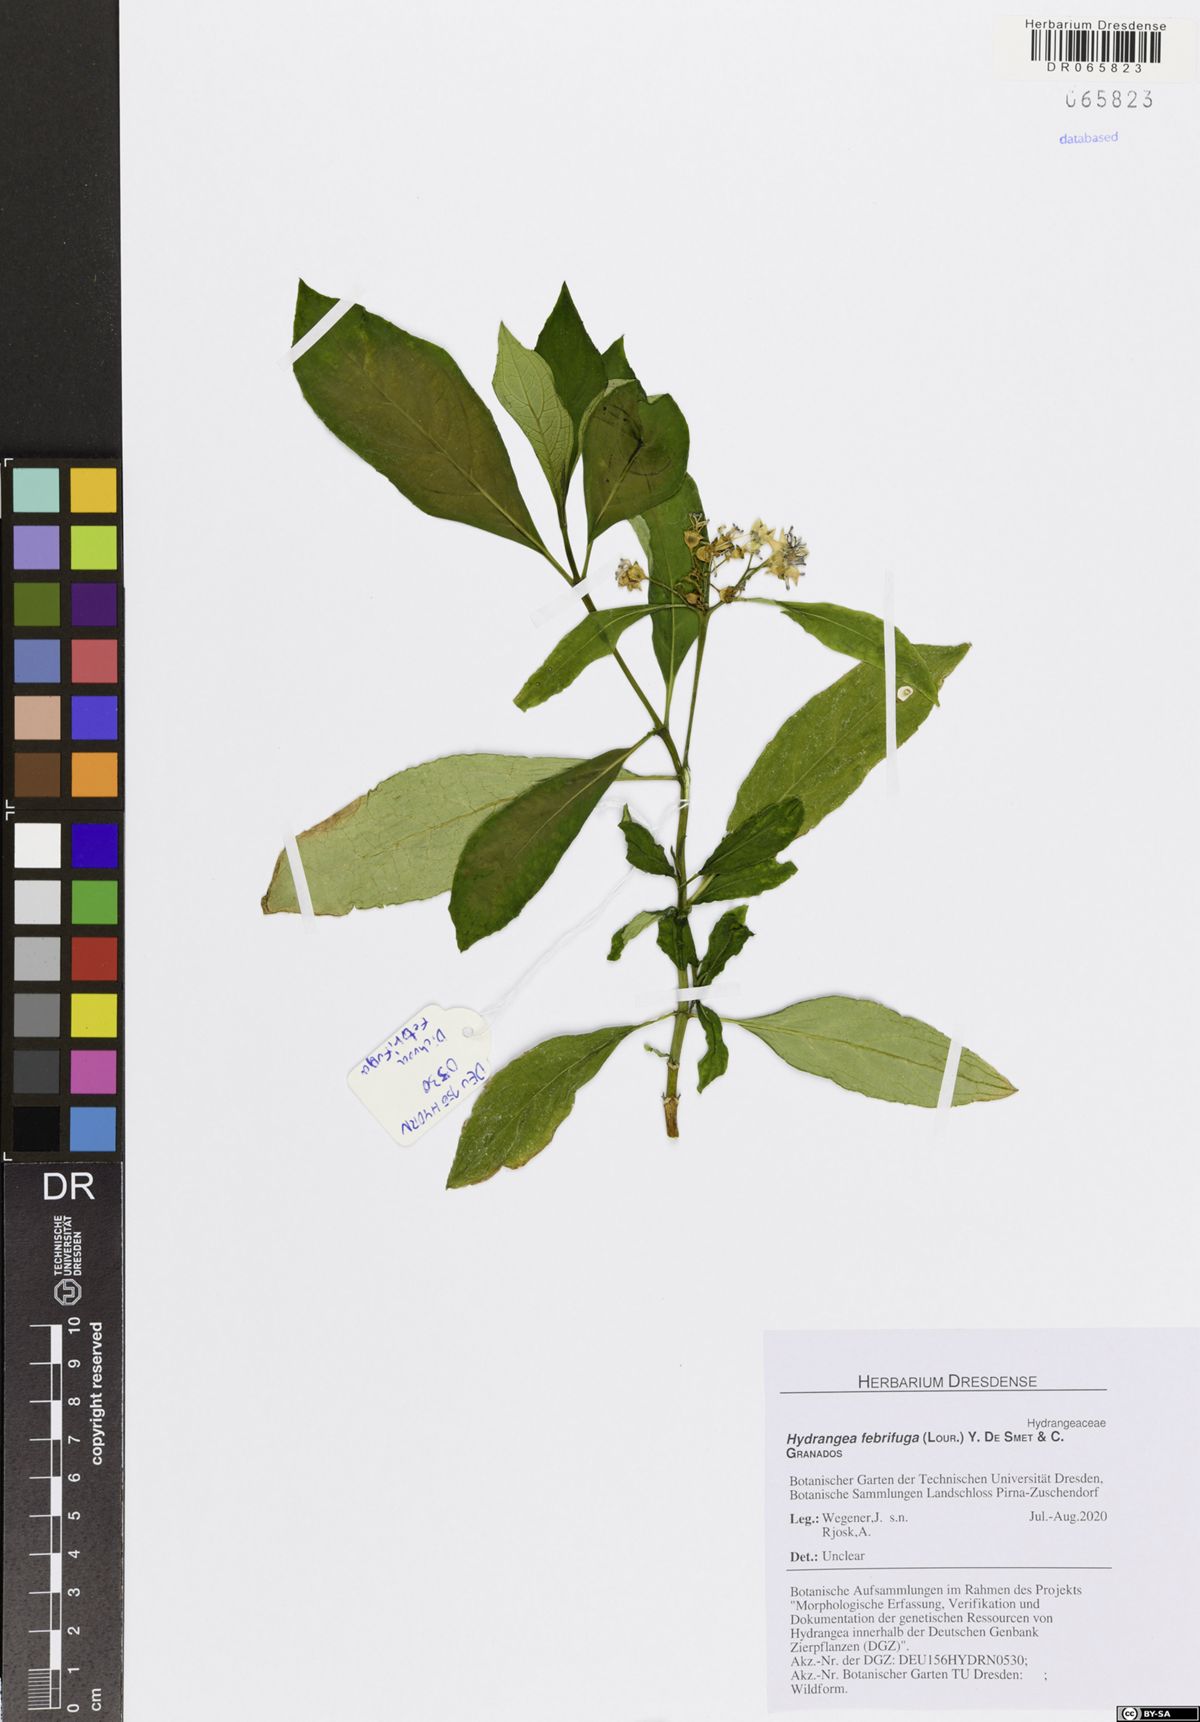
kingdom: Plantae
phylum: Tracheophyta
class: Magnoliopsida
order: Cornales
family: Hydrangeaceae
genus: Hydrangea
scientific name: Hydrangea febrifuga
